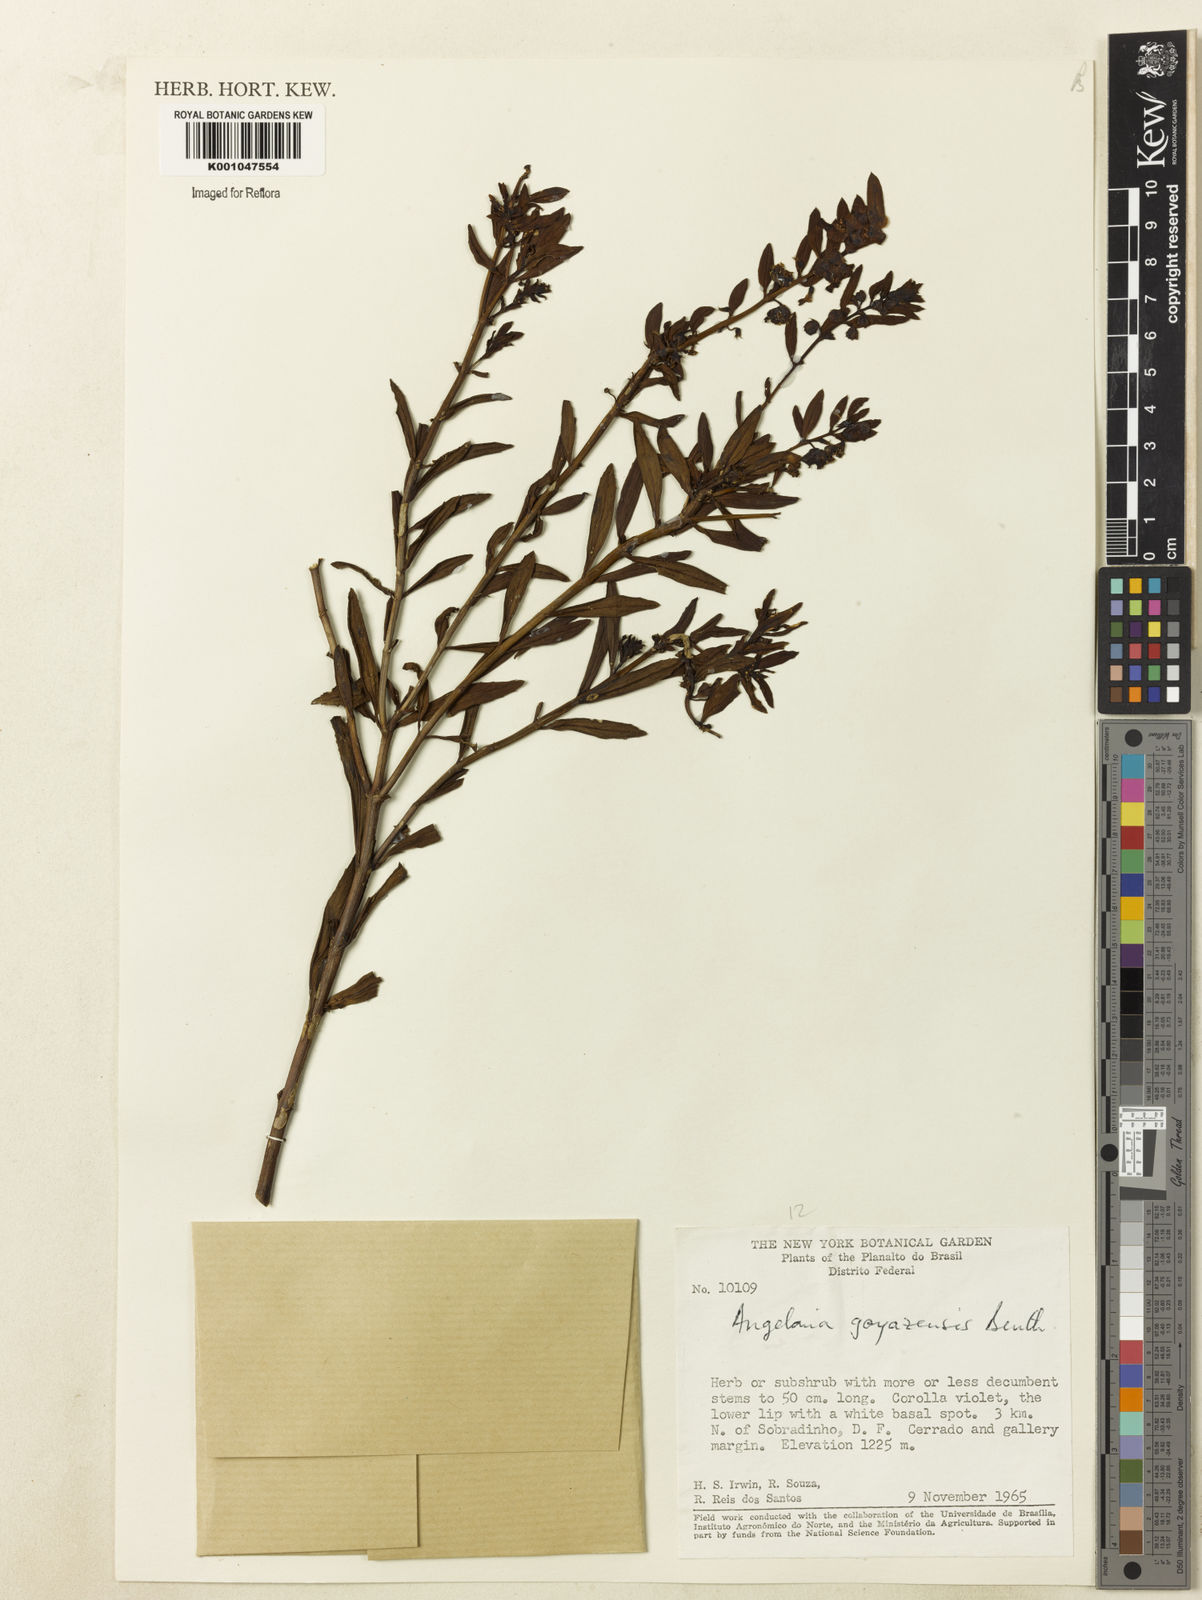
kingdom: Plantae
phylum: Tracheophyta
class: Magnoliopsida
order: Lamiales
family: Plantaginaceae
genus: Angelonia
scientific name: Angelonia goyazensis
